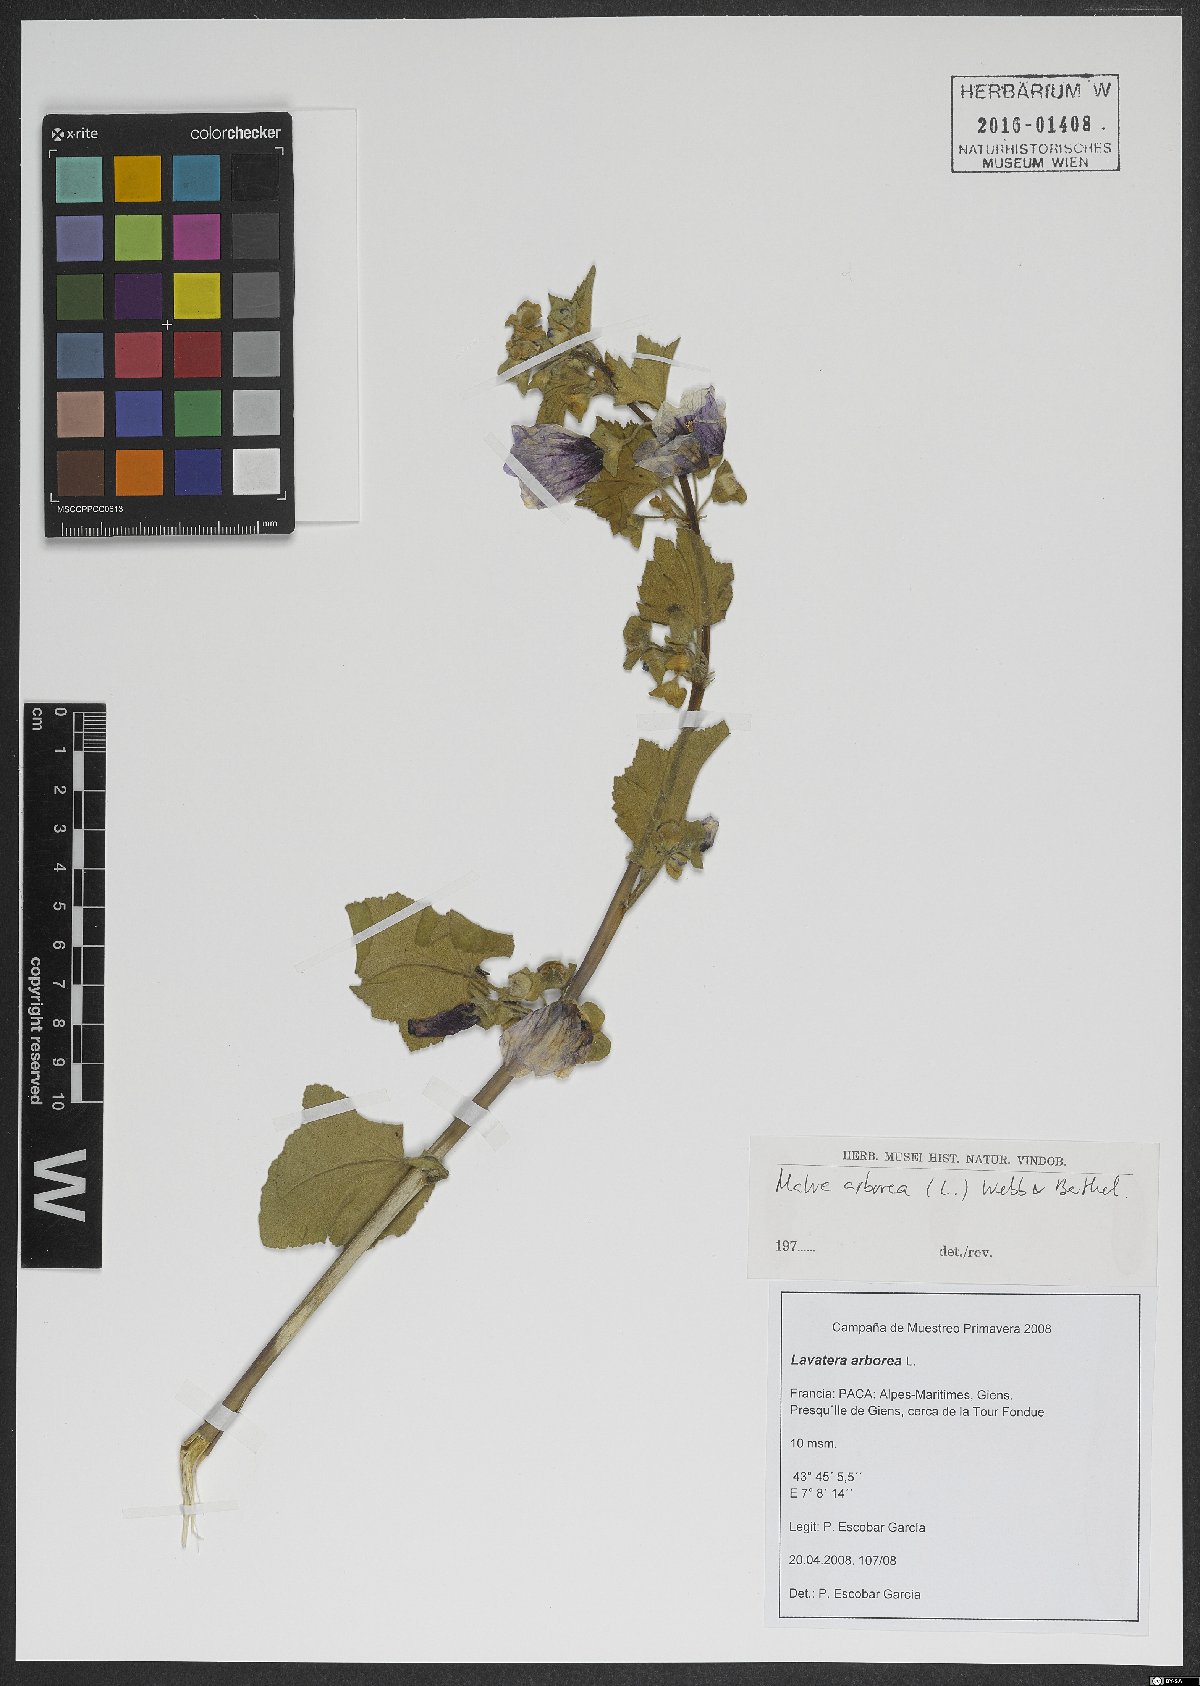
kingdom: Plantae
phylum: Tracheophyta
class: Magnoliopsida
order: Malvales
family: Malvaceae
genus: Malva
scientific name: Malva arborea
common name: Tree mallow
